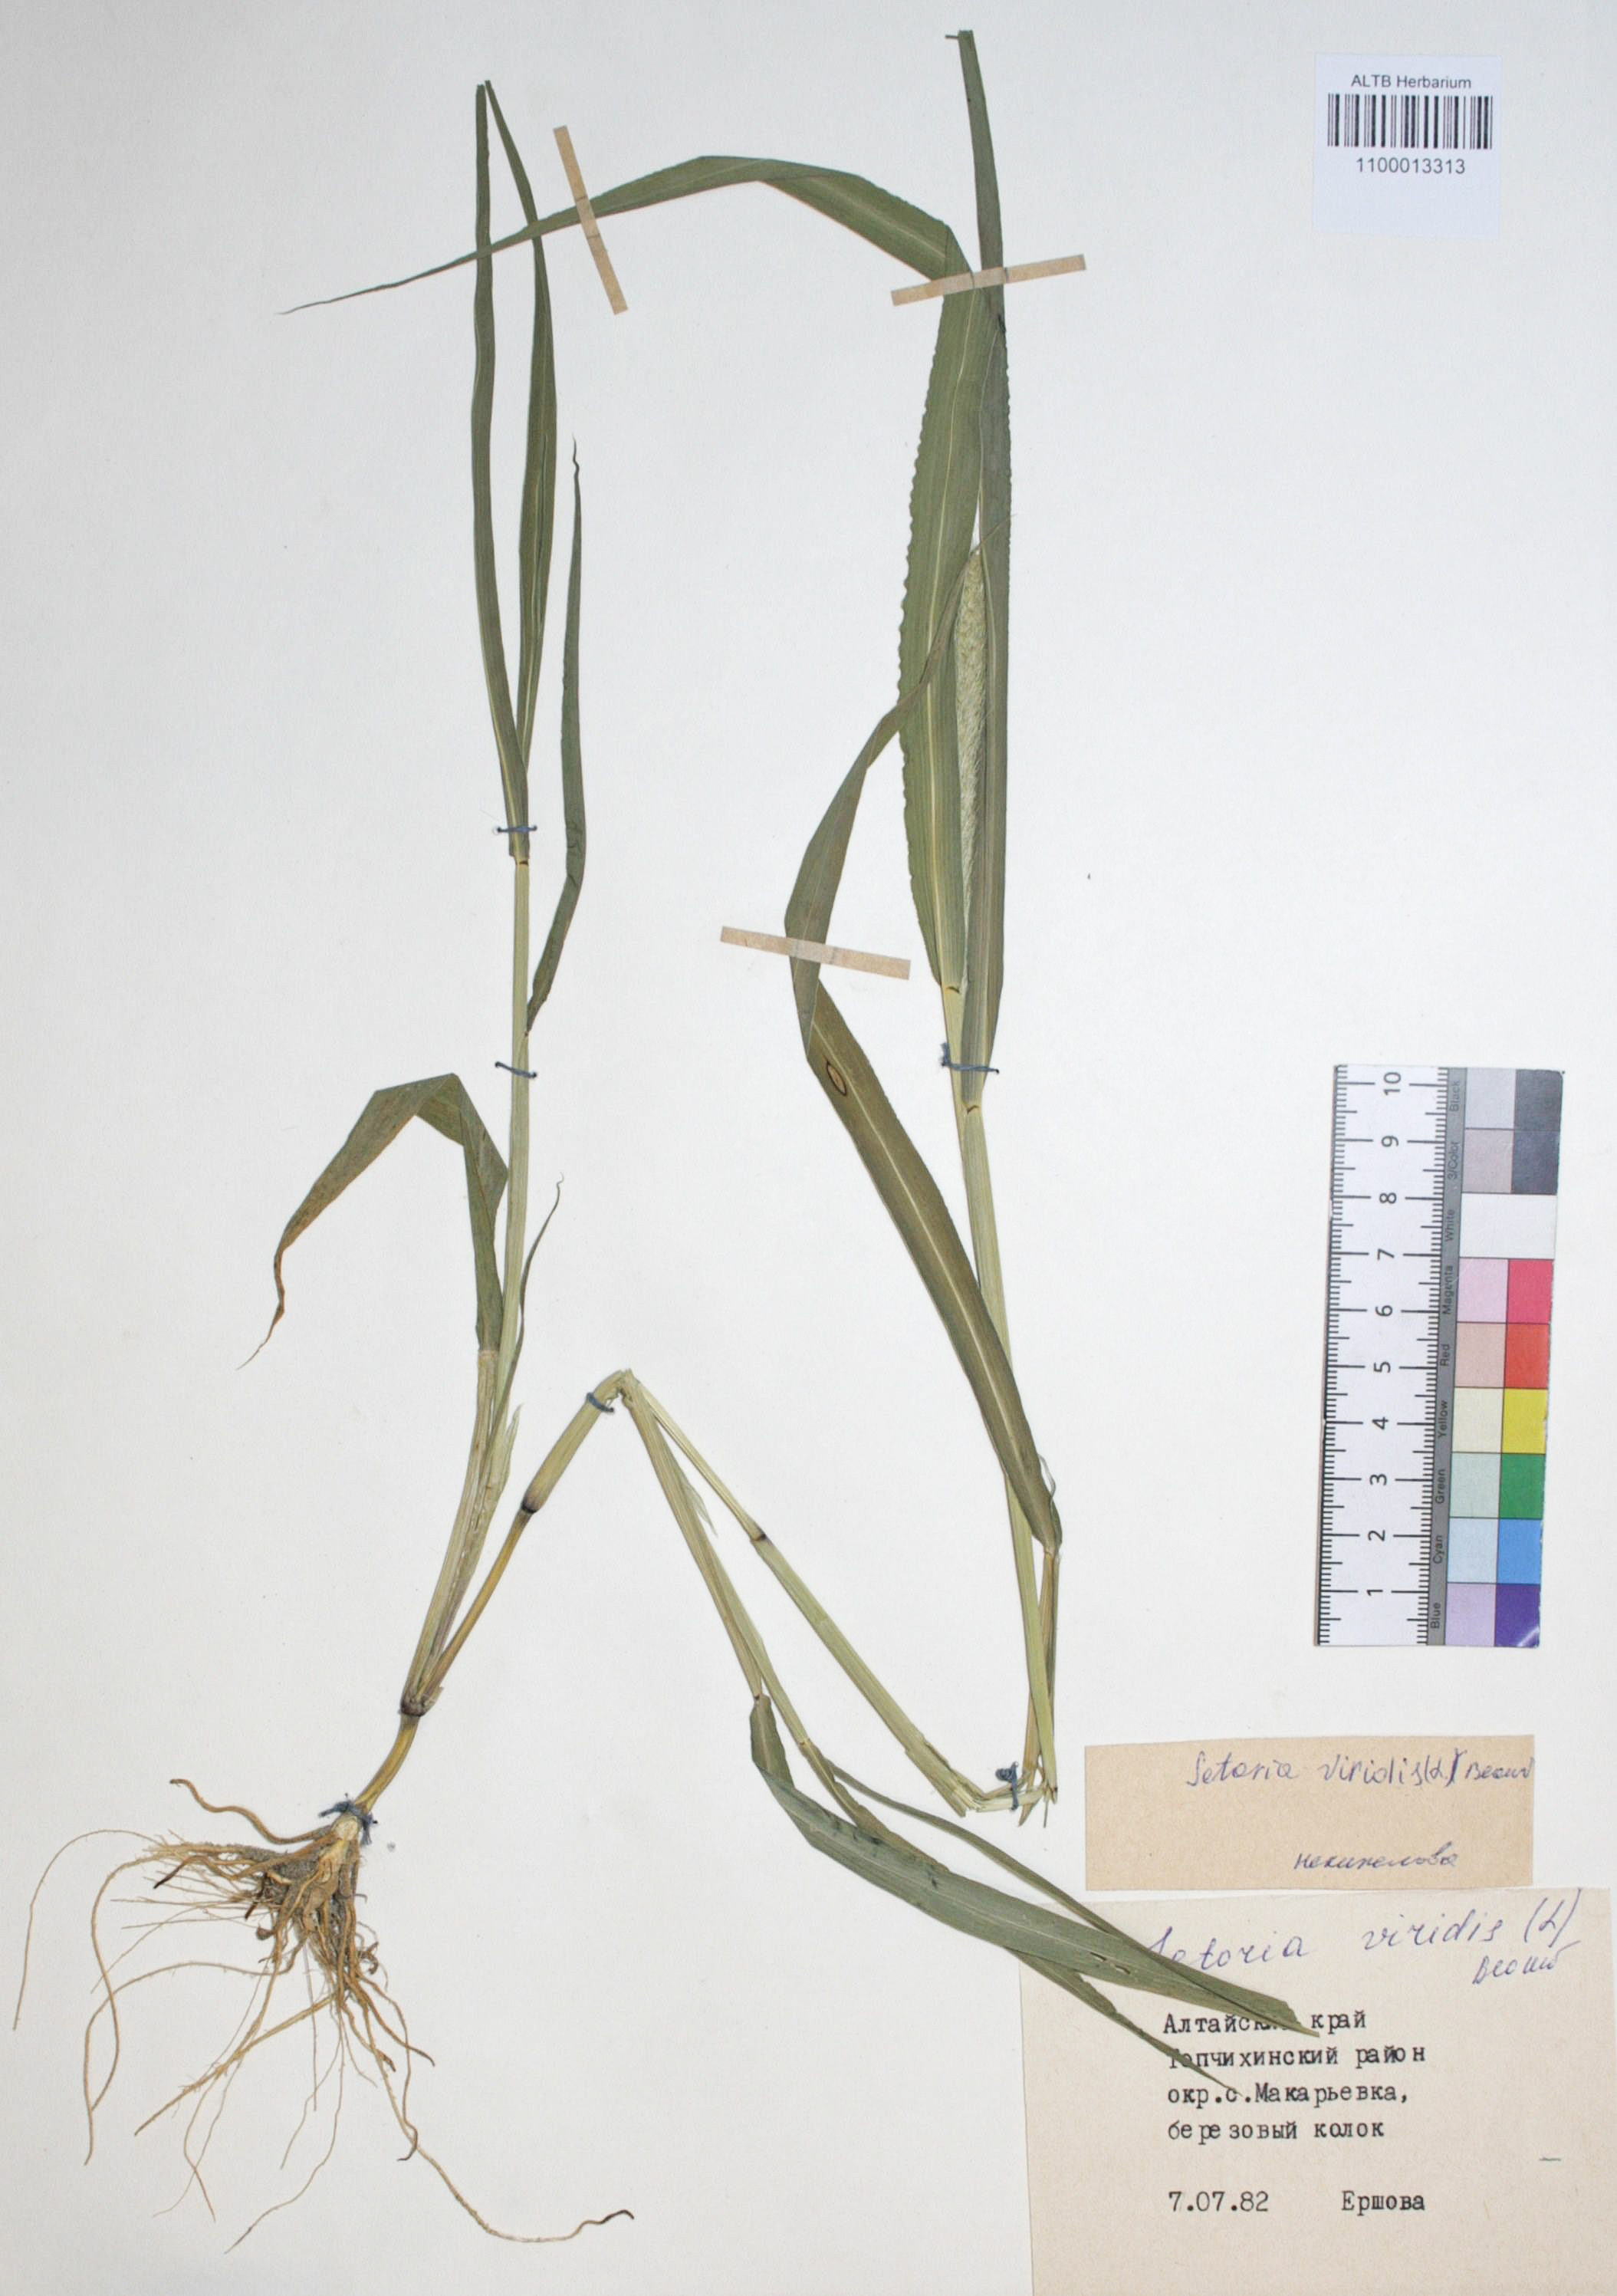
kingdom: Plantae
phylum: Tracheophyta
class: Liliopsida
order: Poales
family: Poaceae
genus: Setaria
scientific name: Setaria viridis
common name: Green bristlegrass
